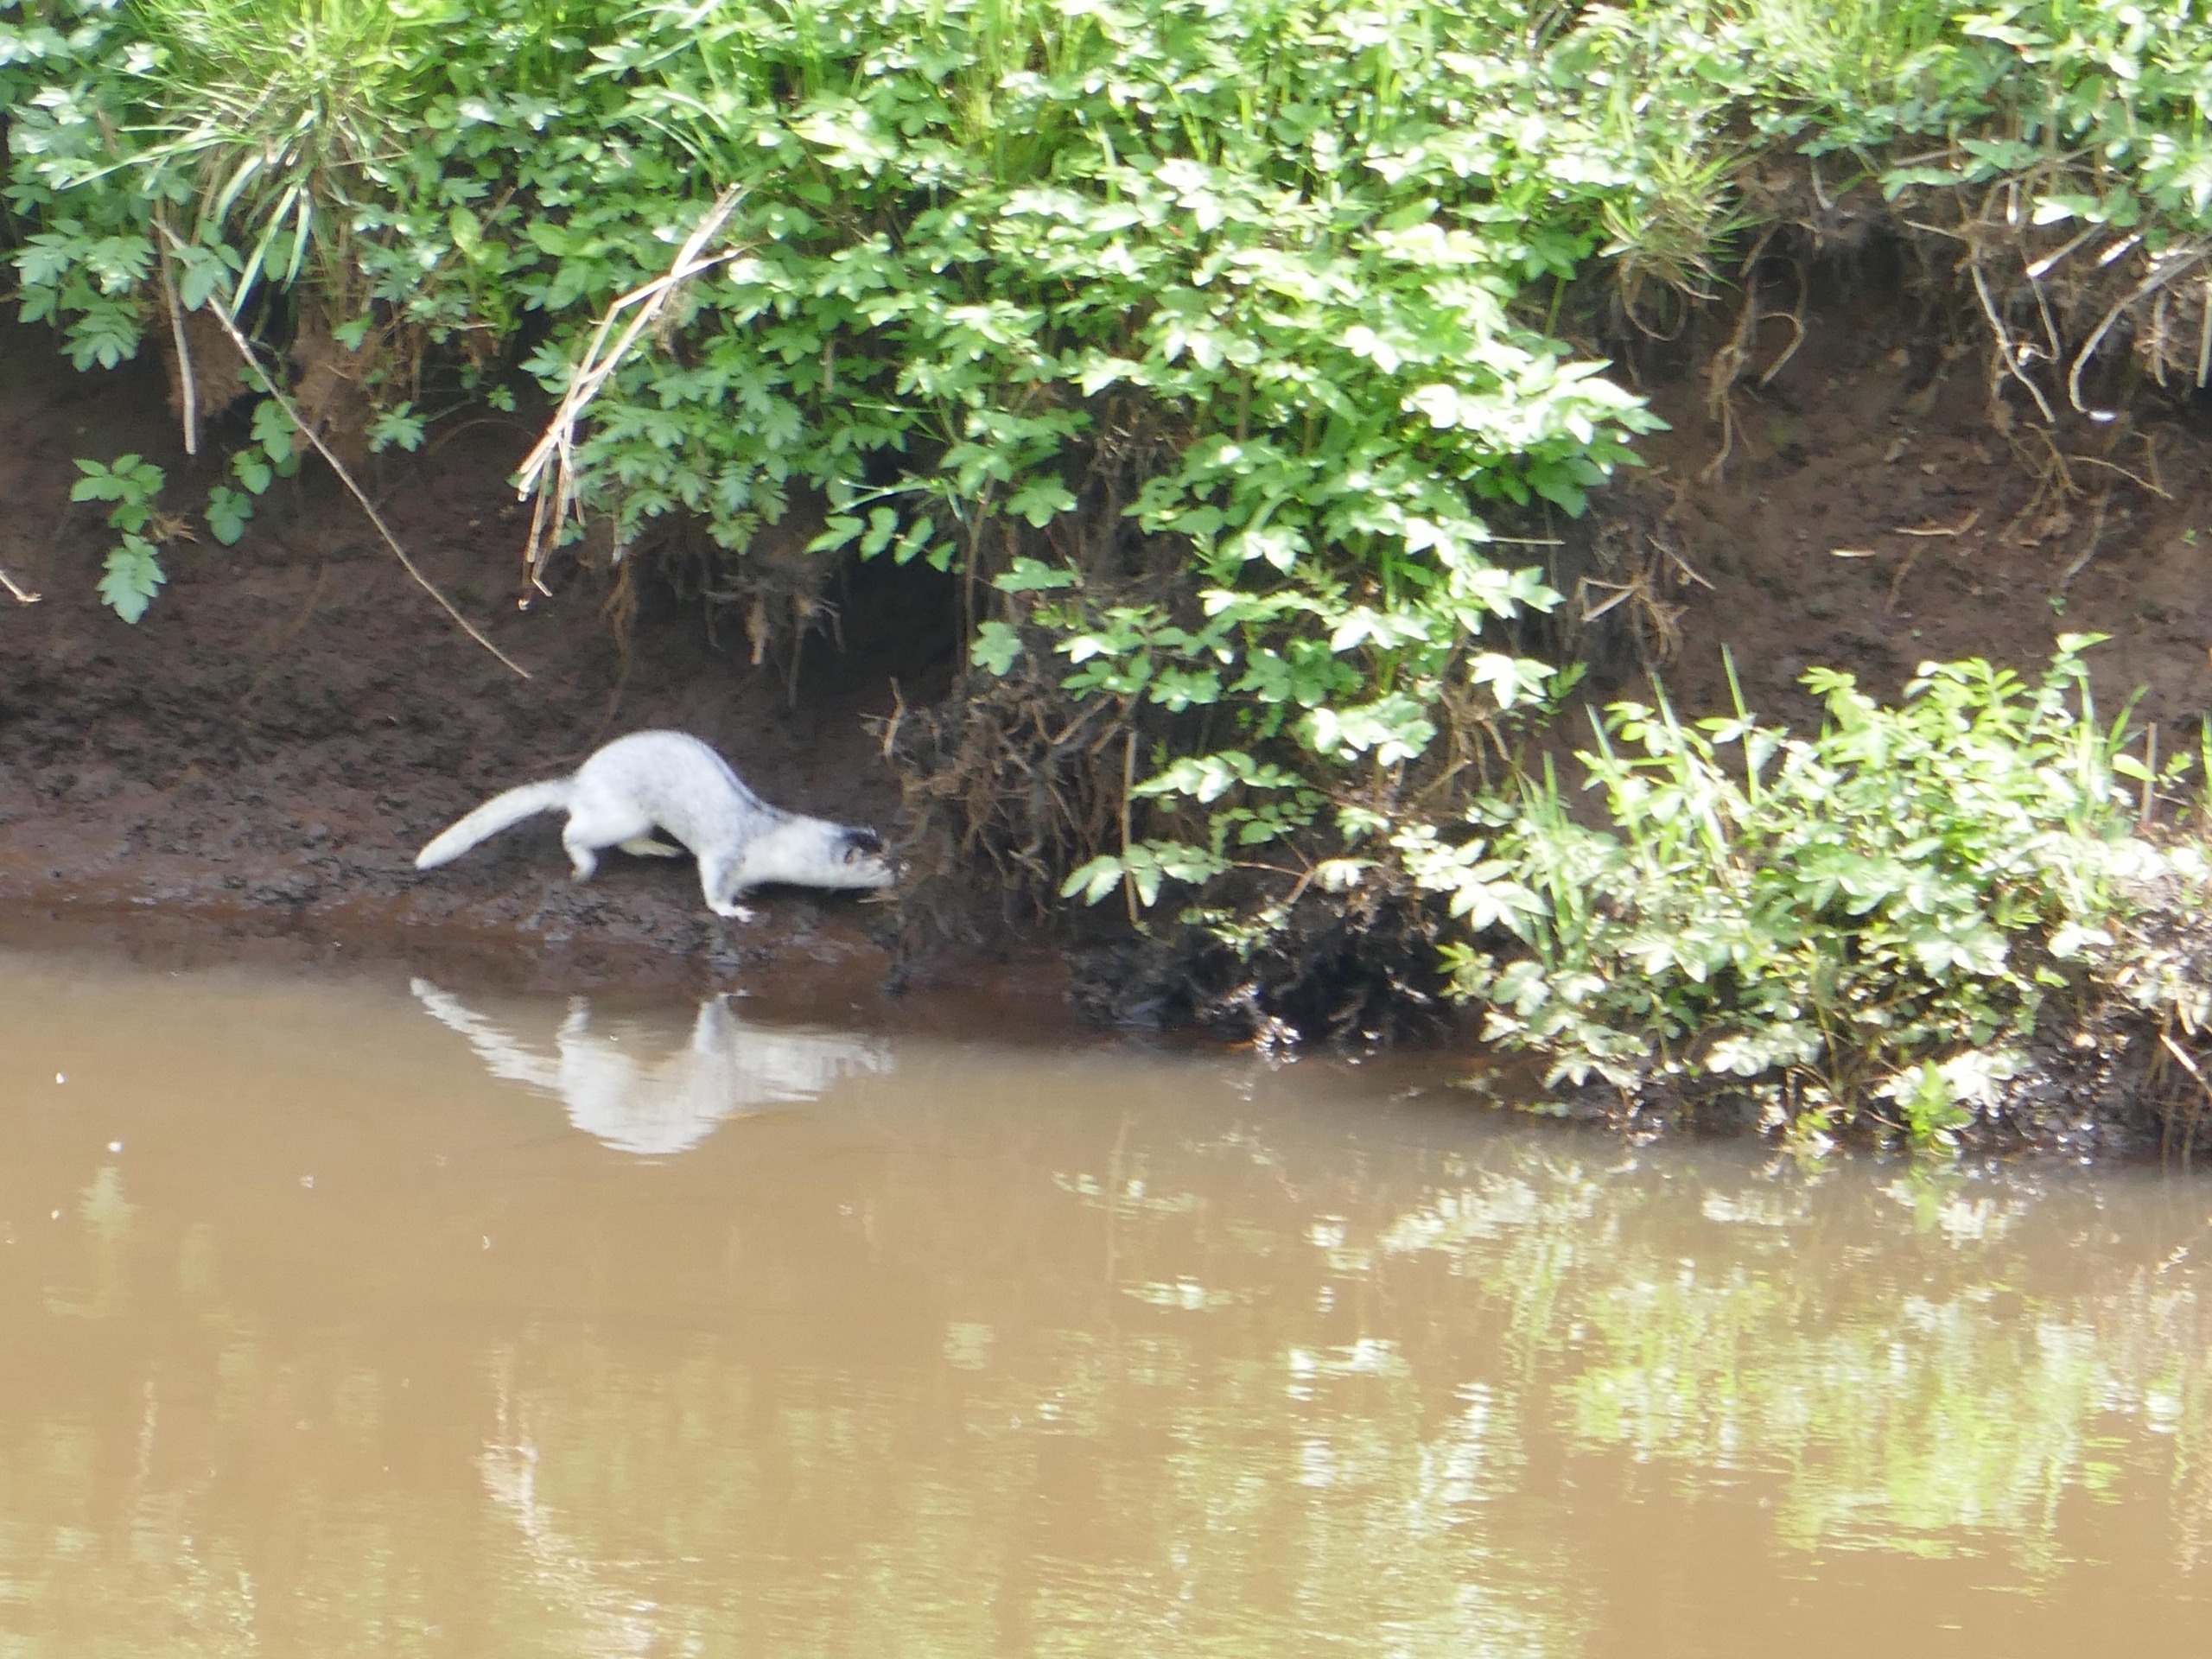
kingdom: Animalia
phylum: Chordata
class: Mammalia
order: Carnivora
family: Mustelidae
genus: Mustela
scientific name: Mustela vison
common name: Mink
